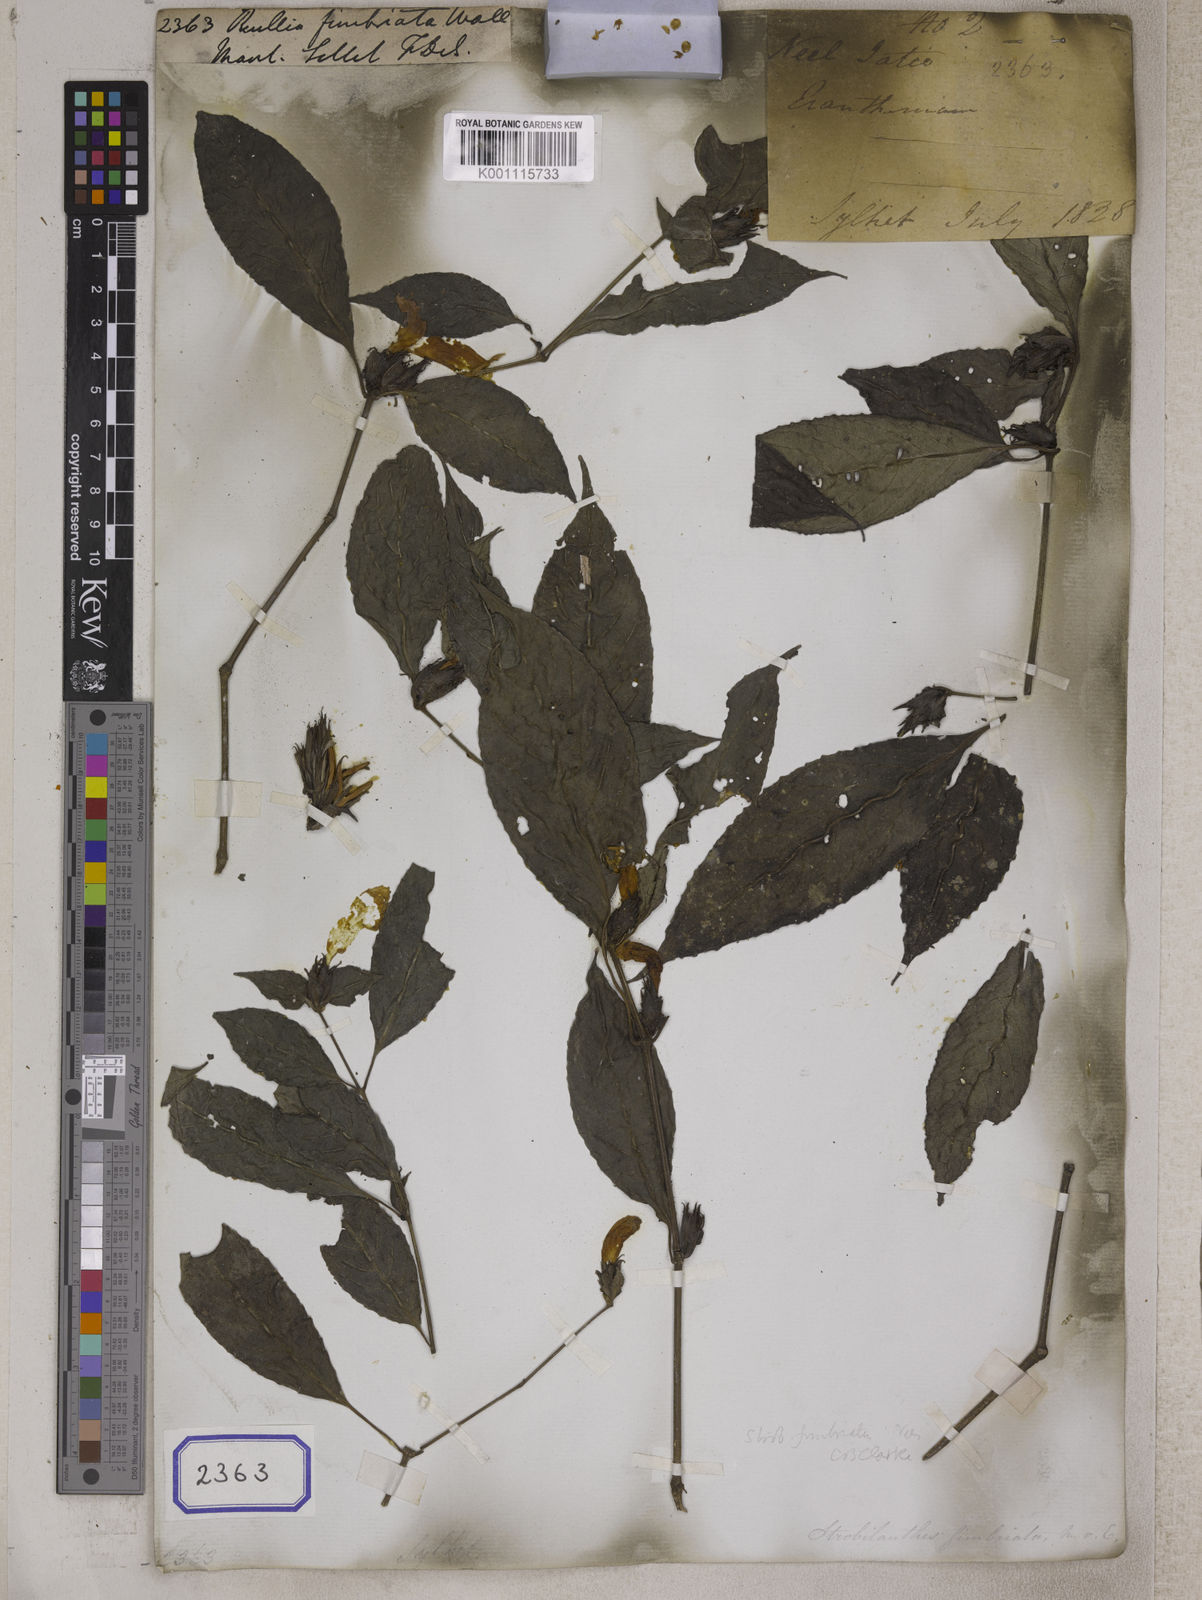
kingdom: Plantae
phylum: Tracheophyta
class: Magnoliopsida
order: Lamiales
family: Acanthaceae
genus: Strobilanthes
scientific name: Strobilanthes fimbriata
